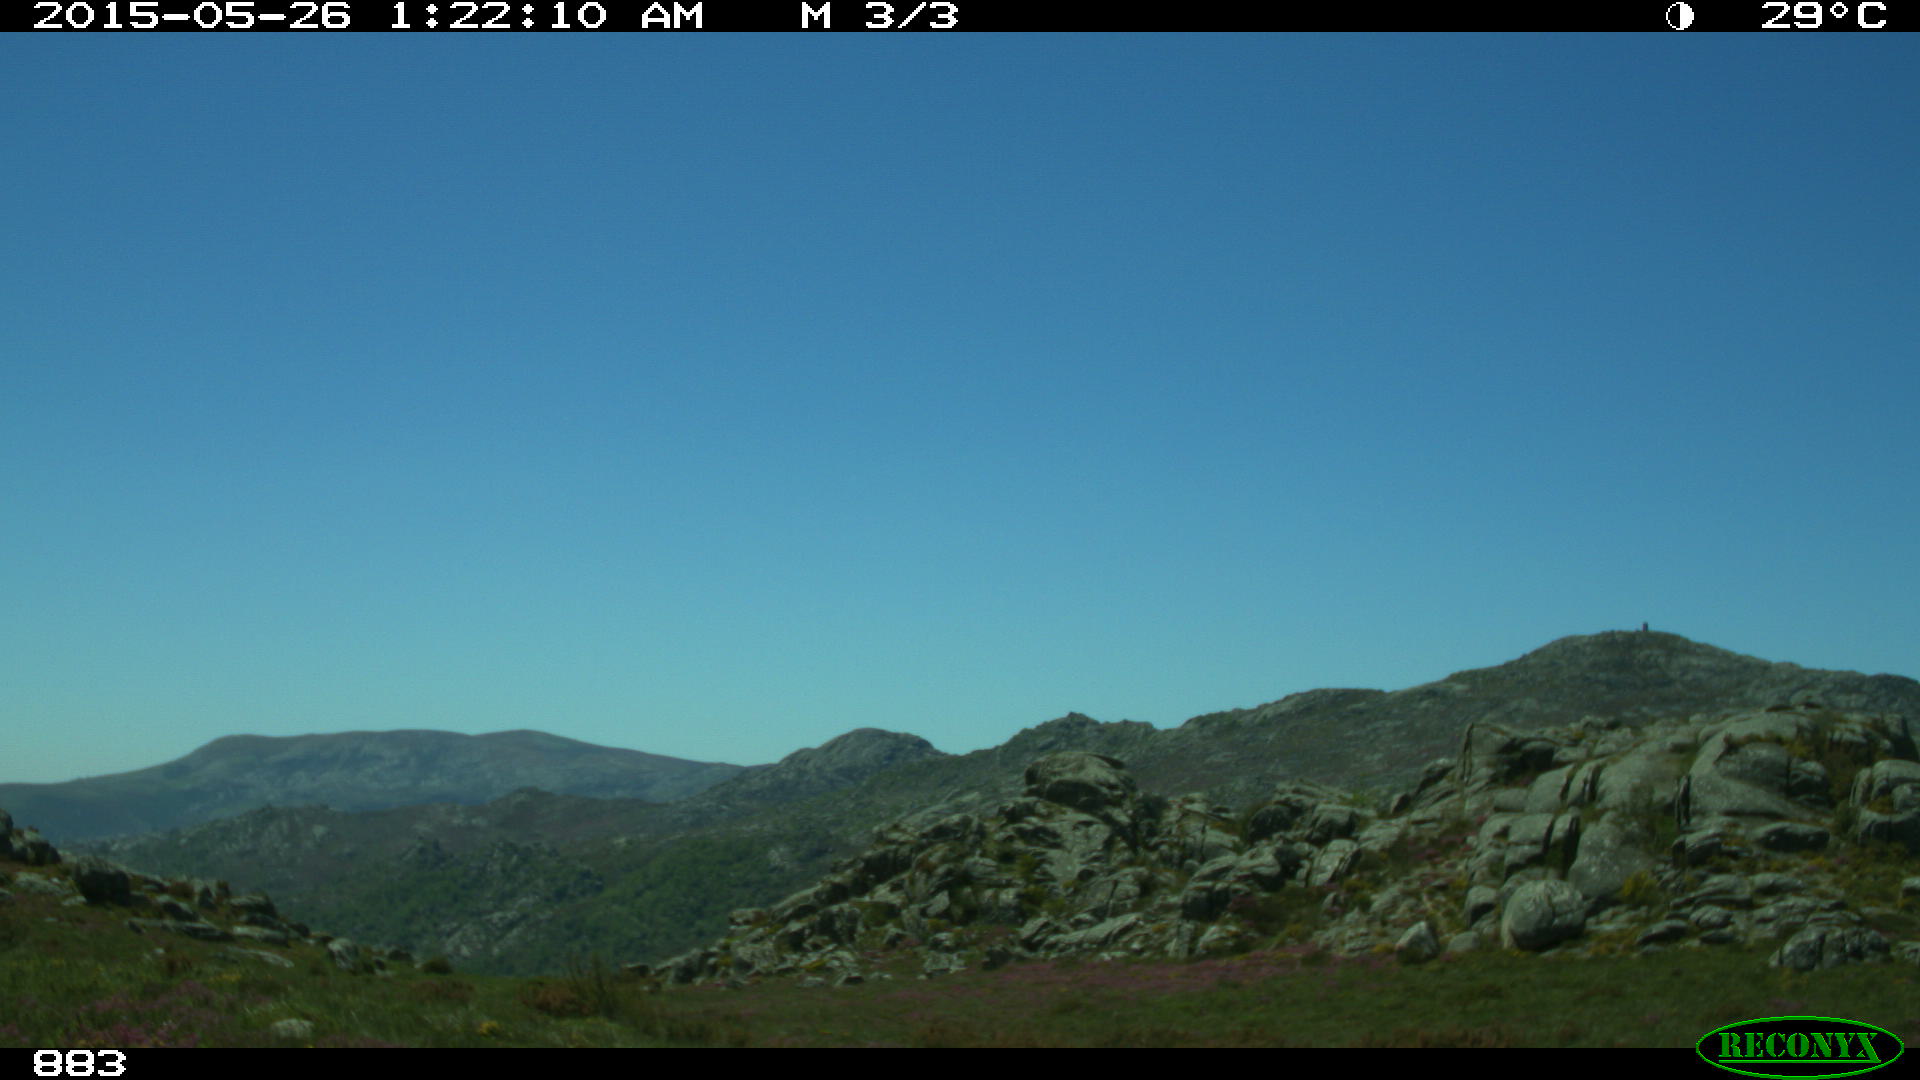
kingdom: Animalia
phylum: Chordata
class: Mammalia
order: Perissodactyla
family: Equidae
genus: Equus
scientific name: Equus caballus
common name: Horse
